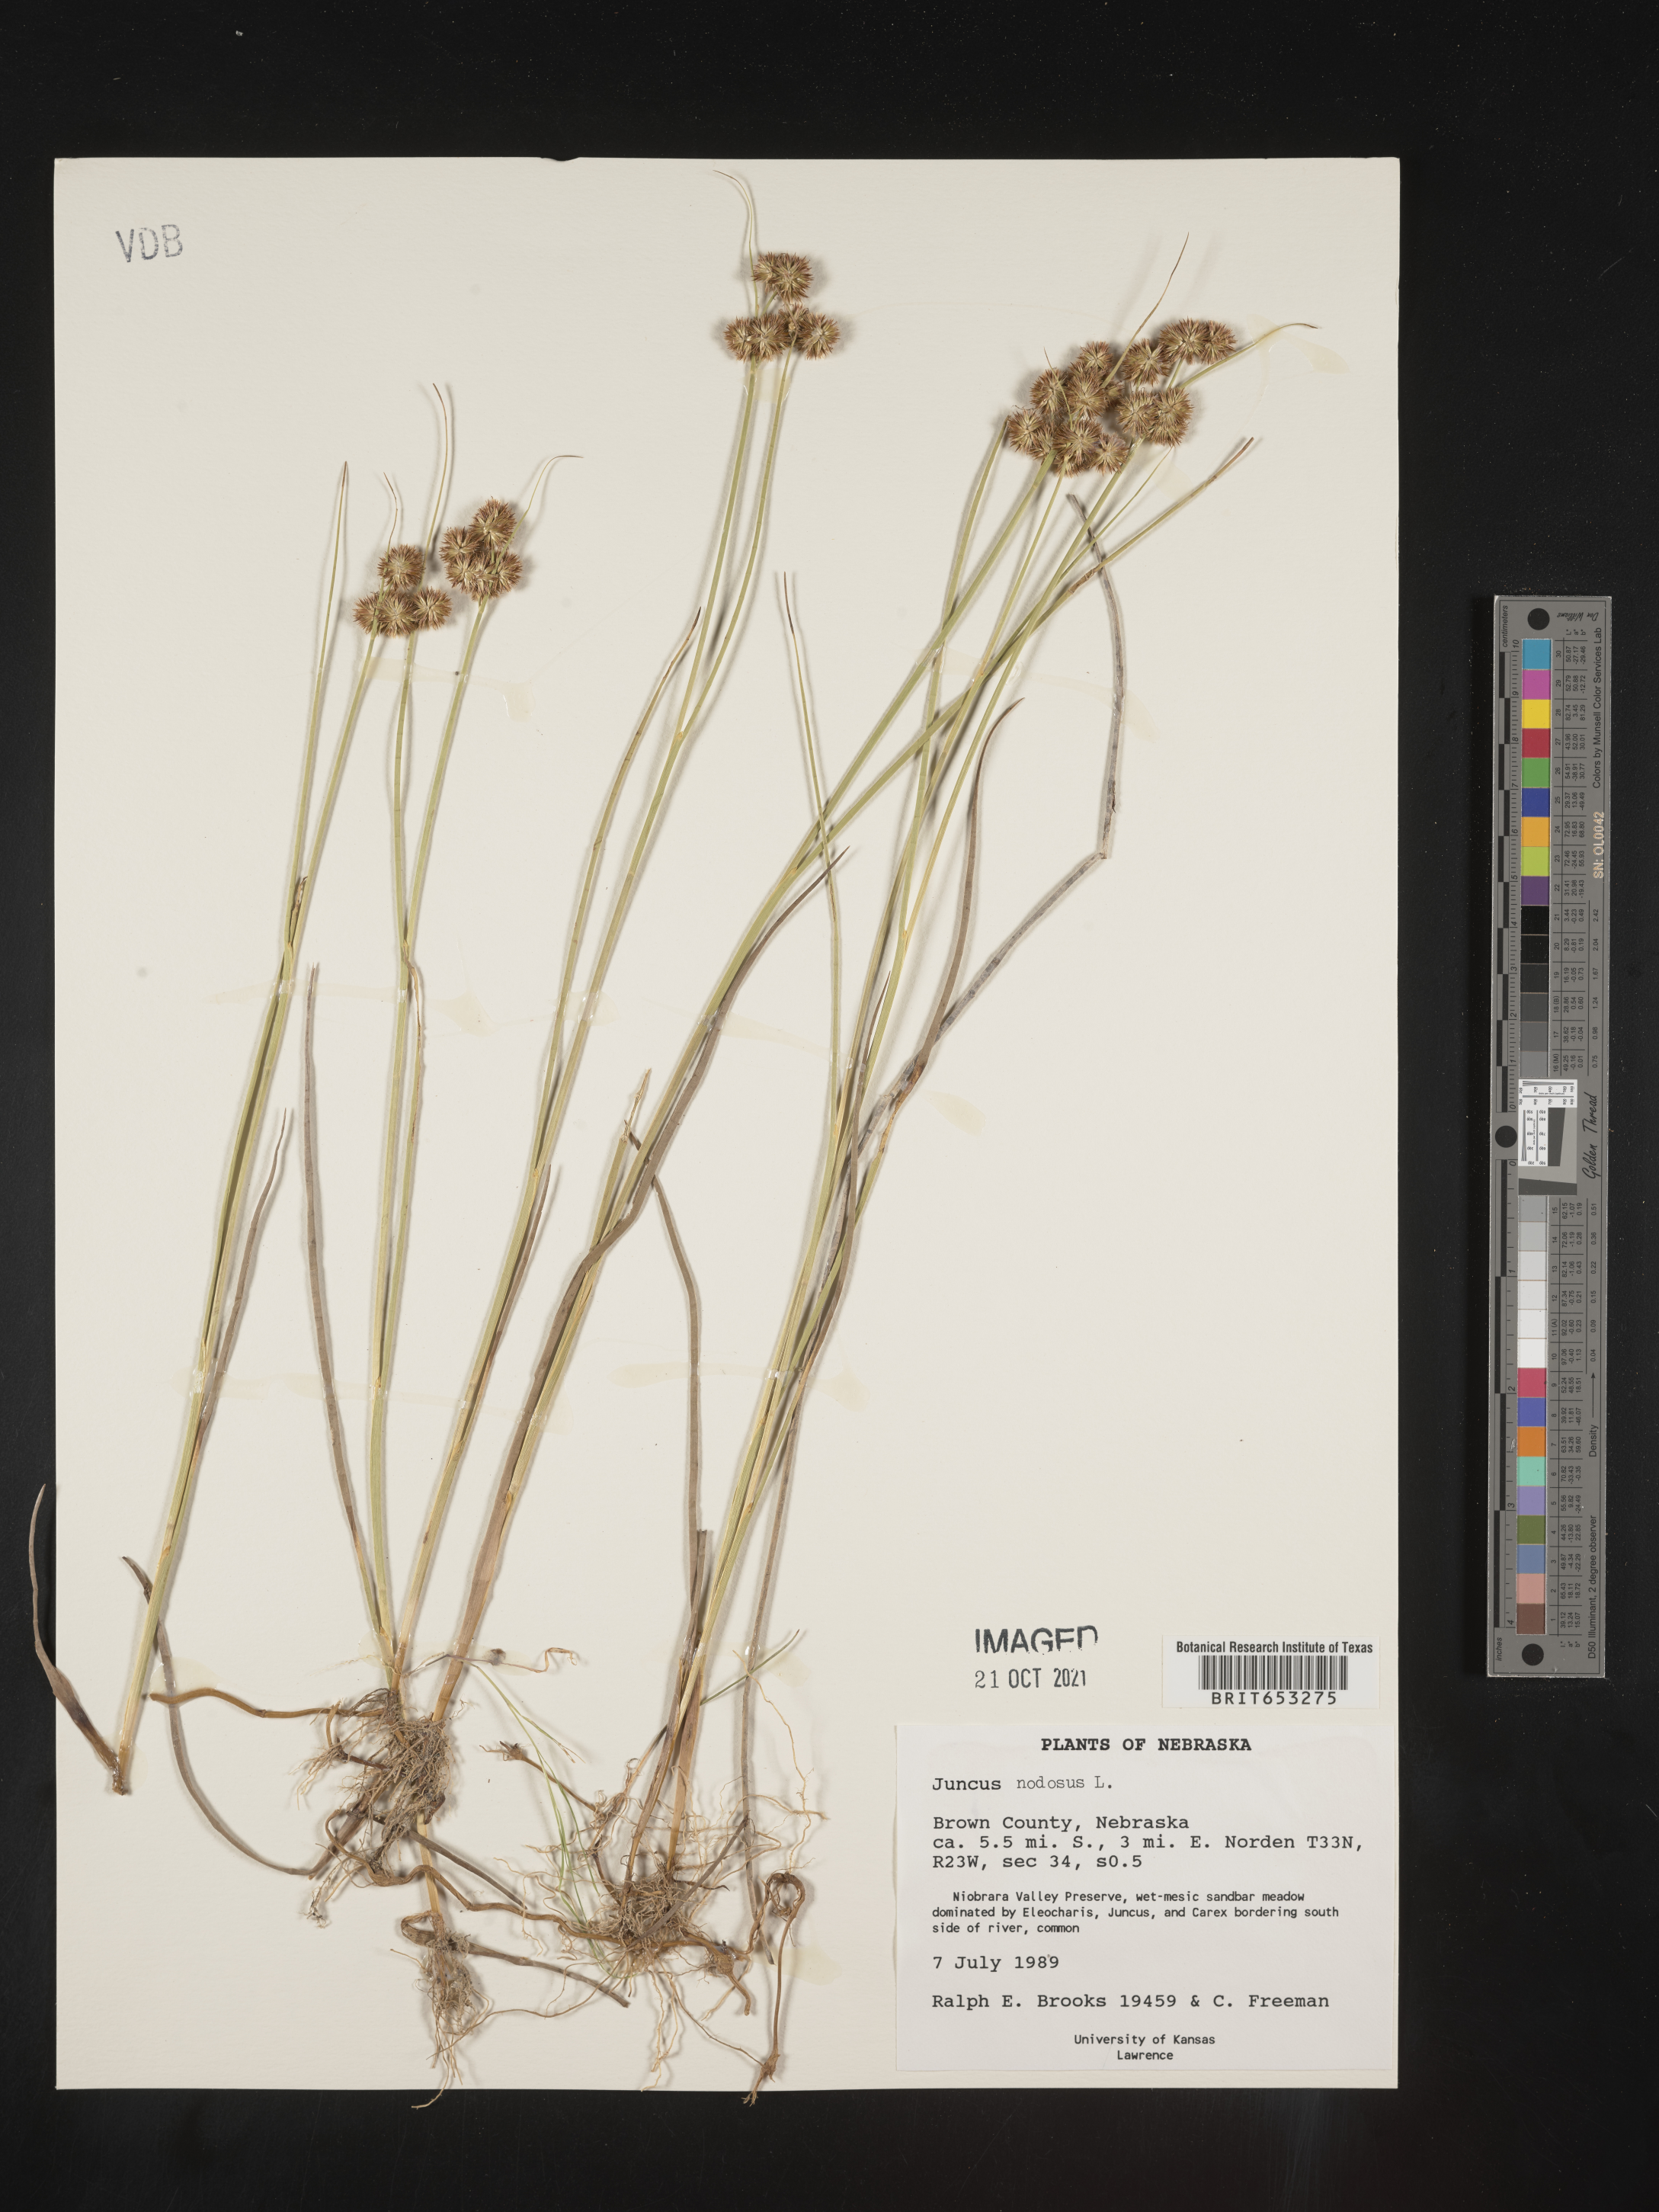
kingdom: Plantae
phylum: Tracheophyta
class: Liliopsida
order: Poales
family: Juncaceae
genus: Juncus
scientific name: Juncus nodosus
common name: Knotted rush
